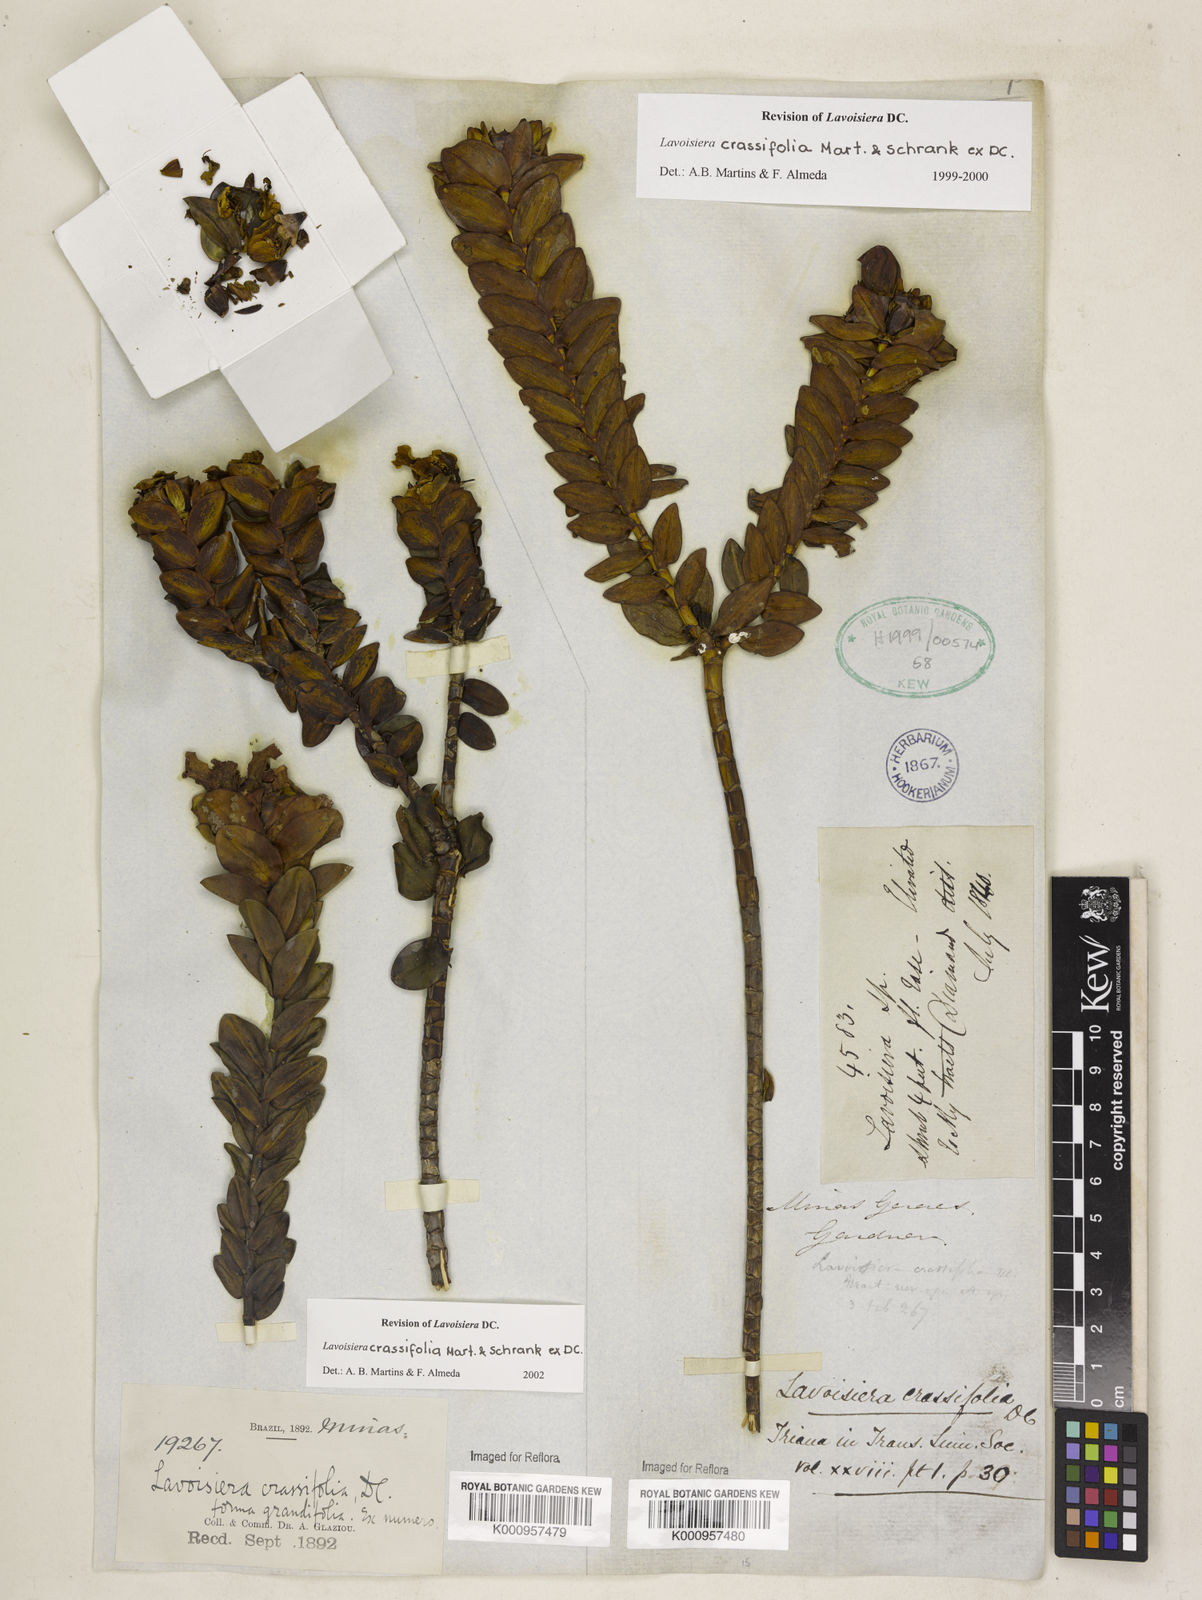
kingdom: Plantae
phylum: Tracheophyta
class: Magnoliopsida
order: Myrtales
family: Melastomataceae
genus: Microlicia
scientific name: Microlicia crassifolia
